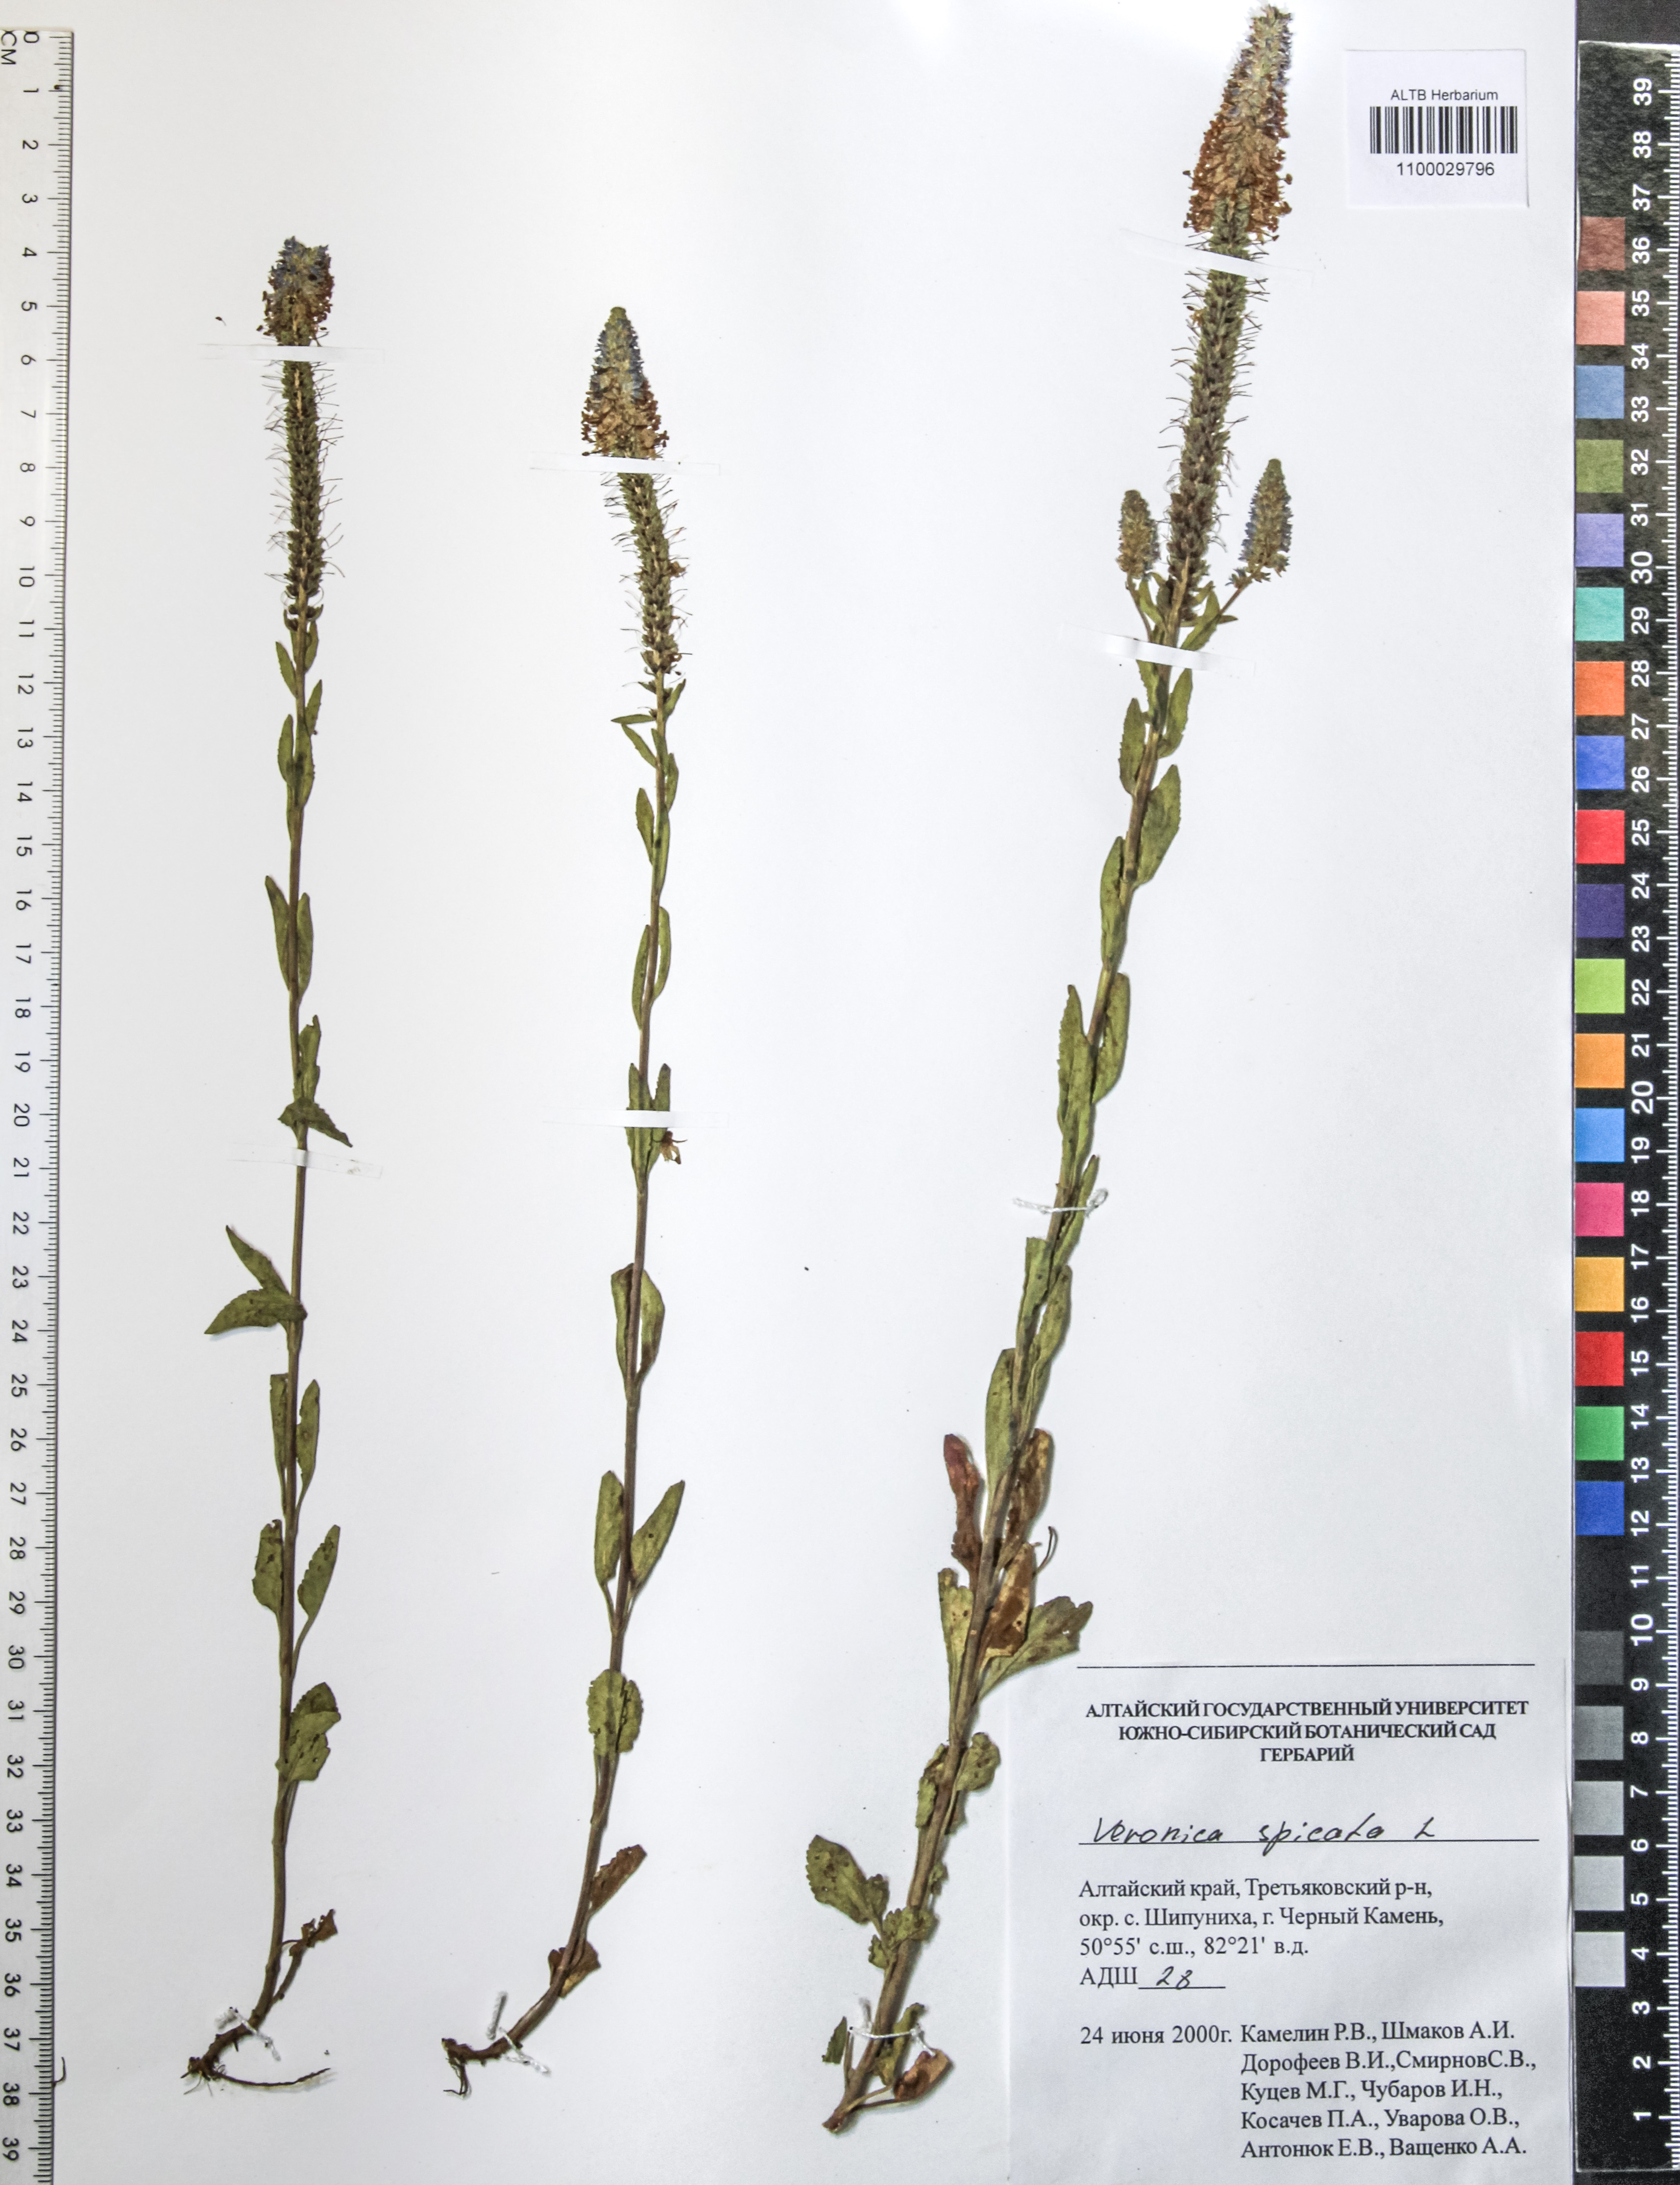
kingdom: Plantae
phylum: Tracheophyta
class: Magnoliopsida
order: Lamiales
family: Plantaginaceae
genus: Veronica
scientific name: Veronica spicata
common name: Spiked speedwell
